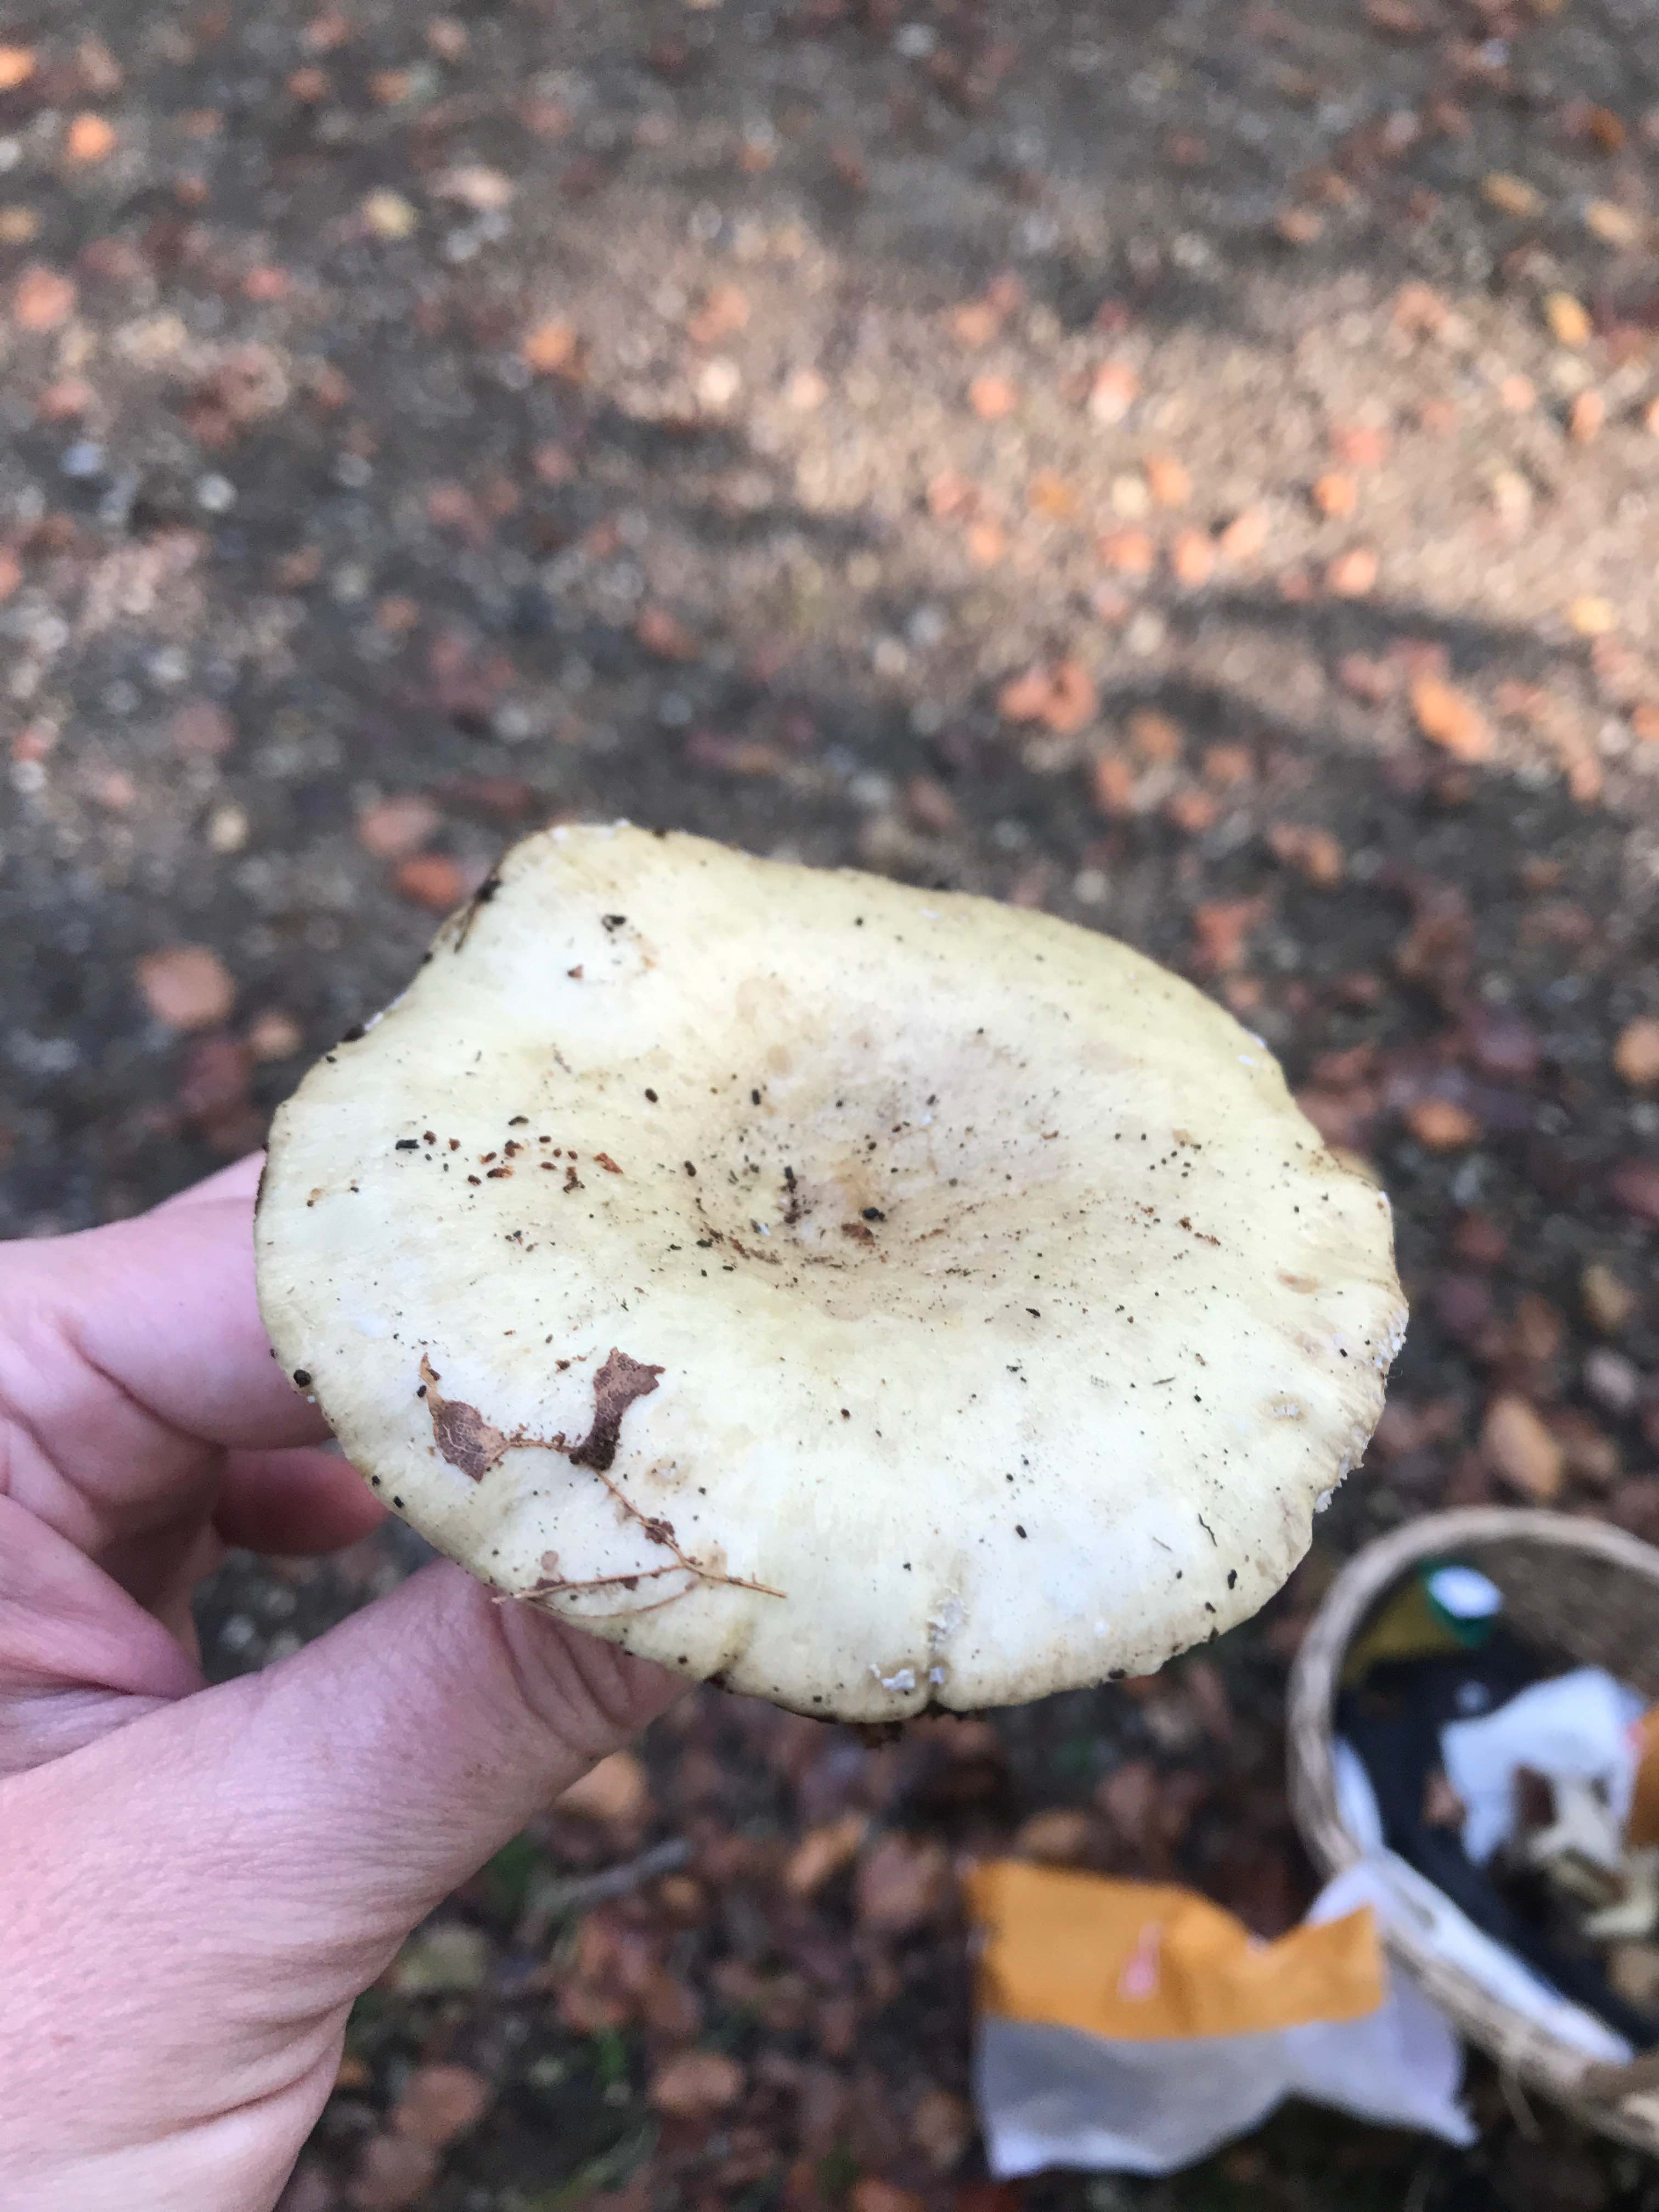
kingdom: Fungi
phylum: Basidiomycota
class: Agaricomycetes
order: Russulales
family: Russulaceae
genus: Lactarius
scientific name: Lactarius
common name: mælkehat
